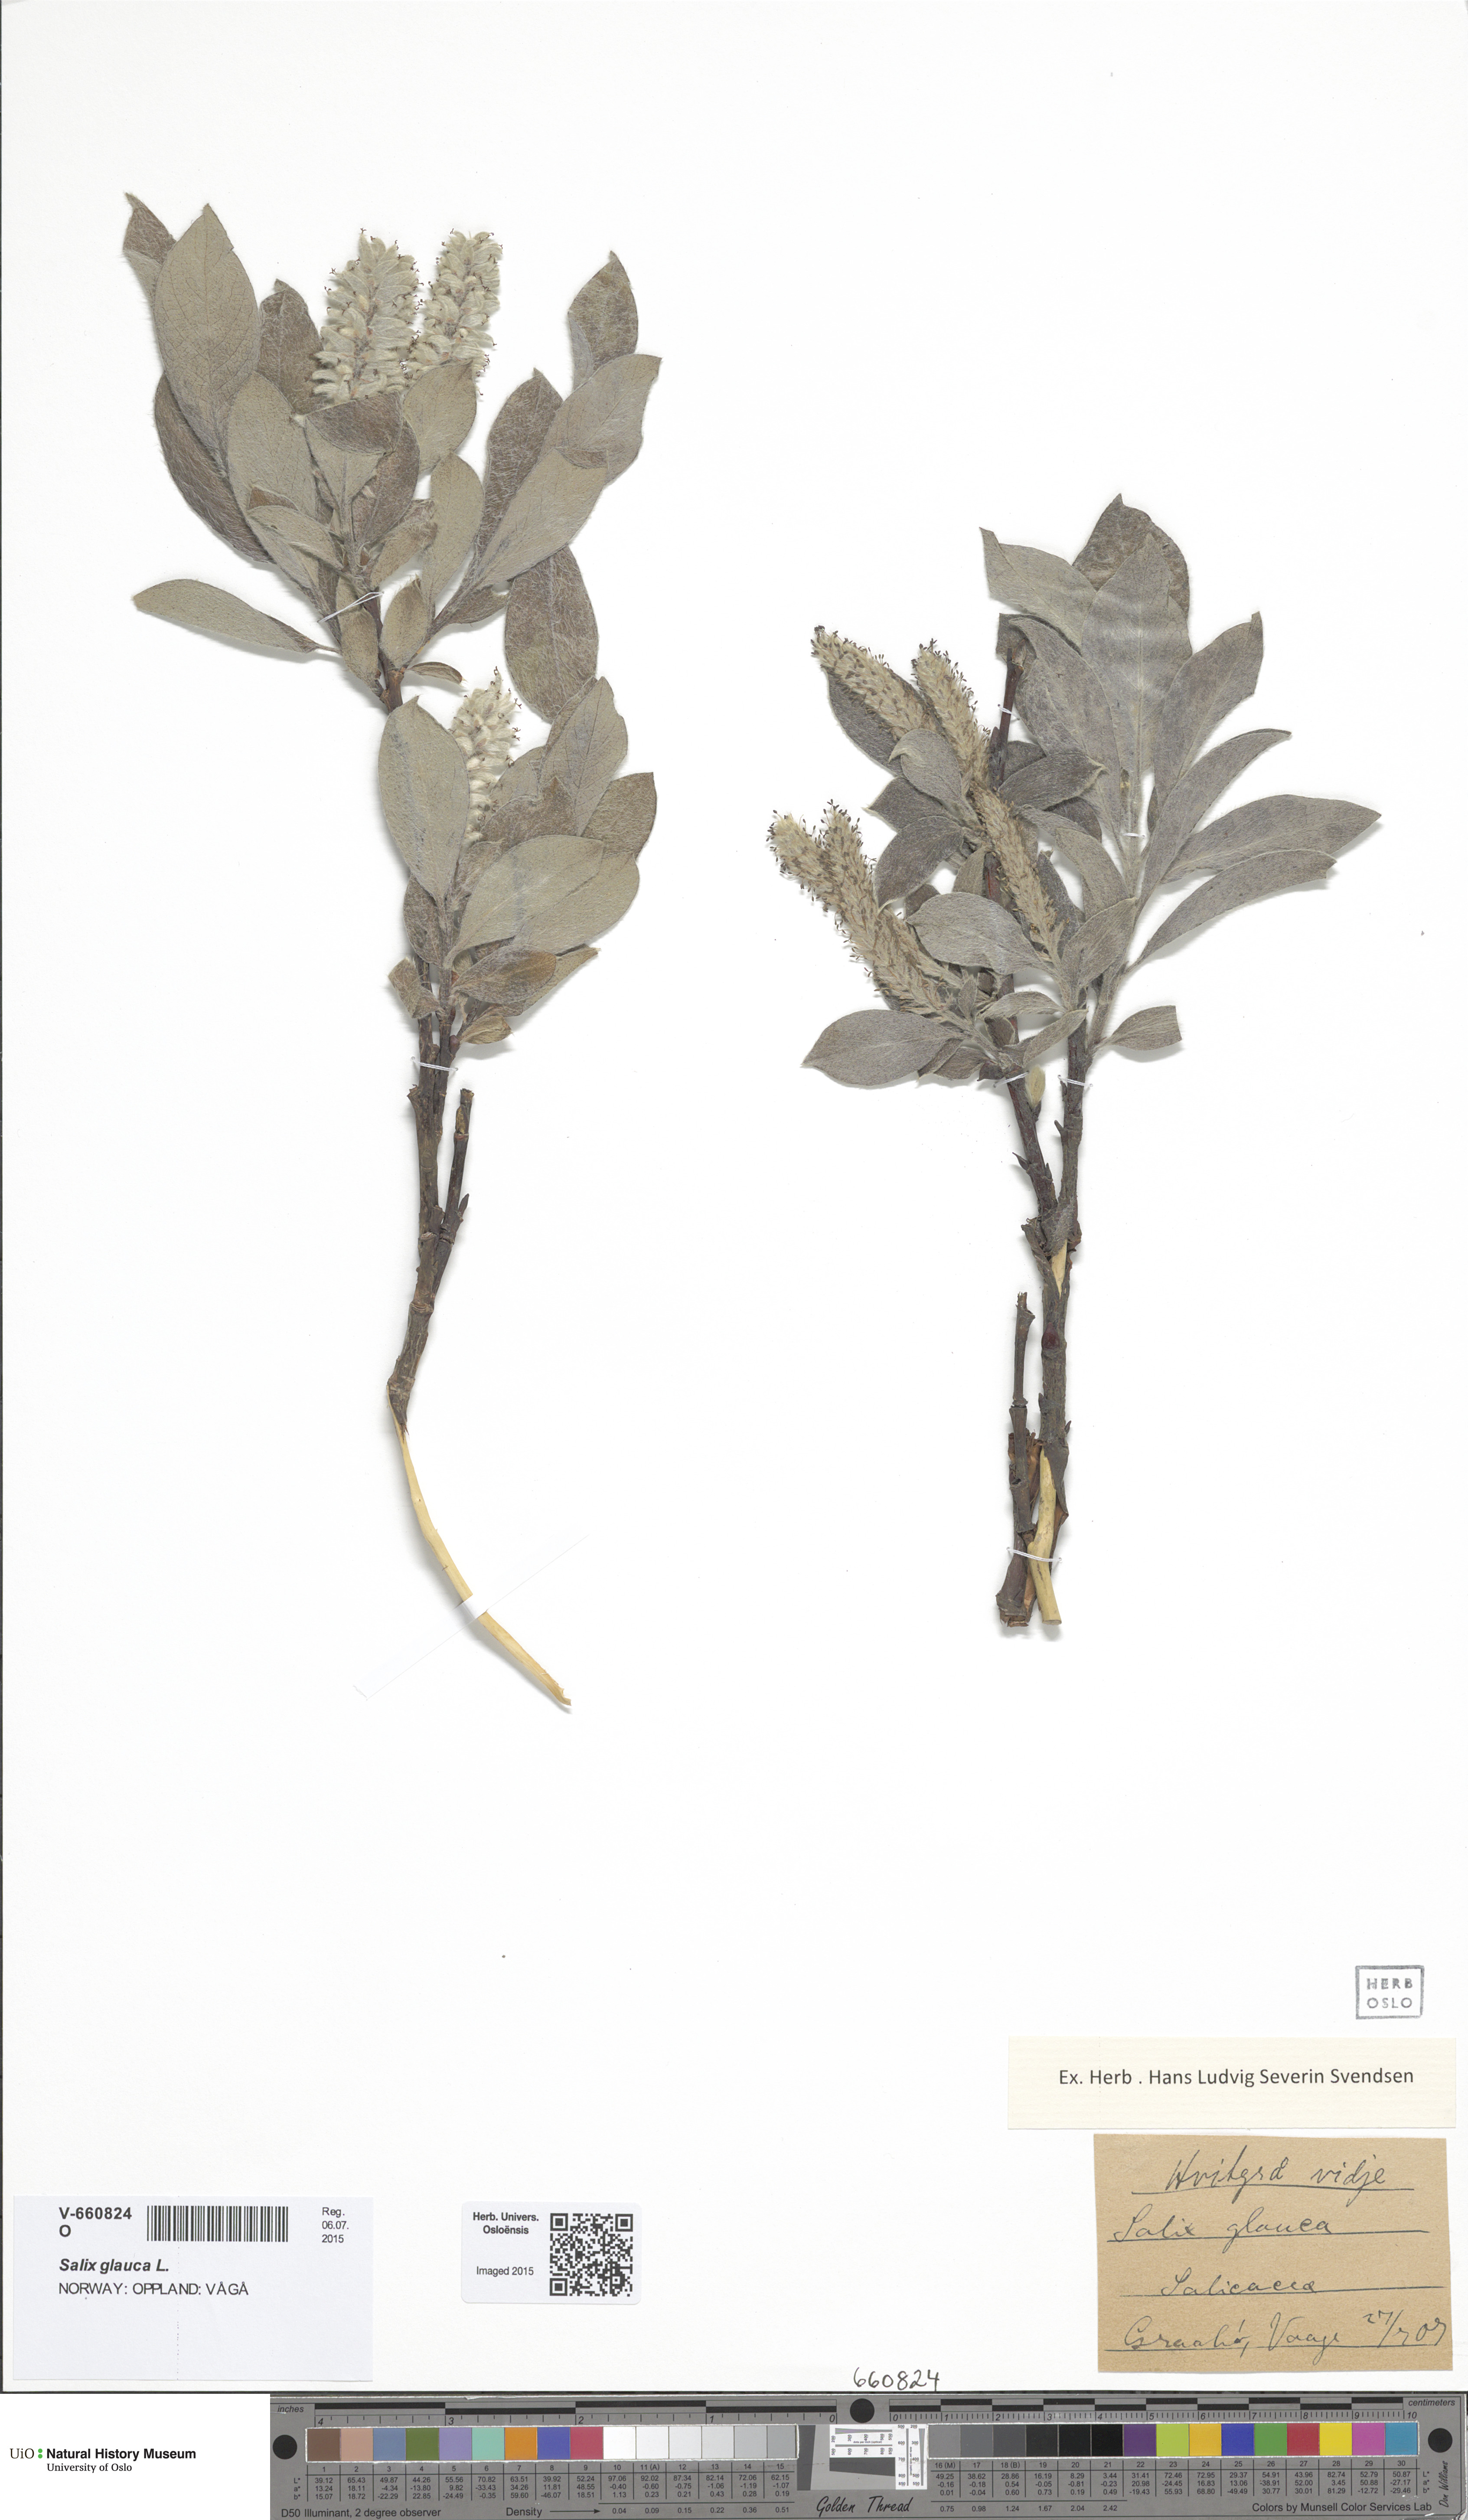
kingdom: Plantae
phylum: Tracheophyta
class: Magnoliopsida
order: Malpighiales
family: Salicaceae
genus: Salix
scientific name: Salix glauca
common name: Glaucous willow
